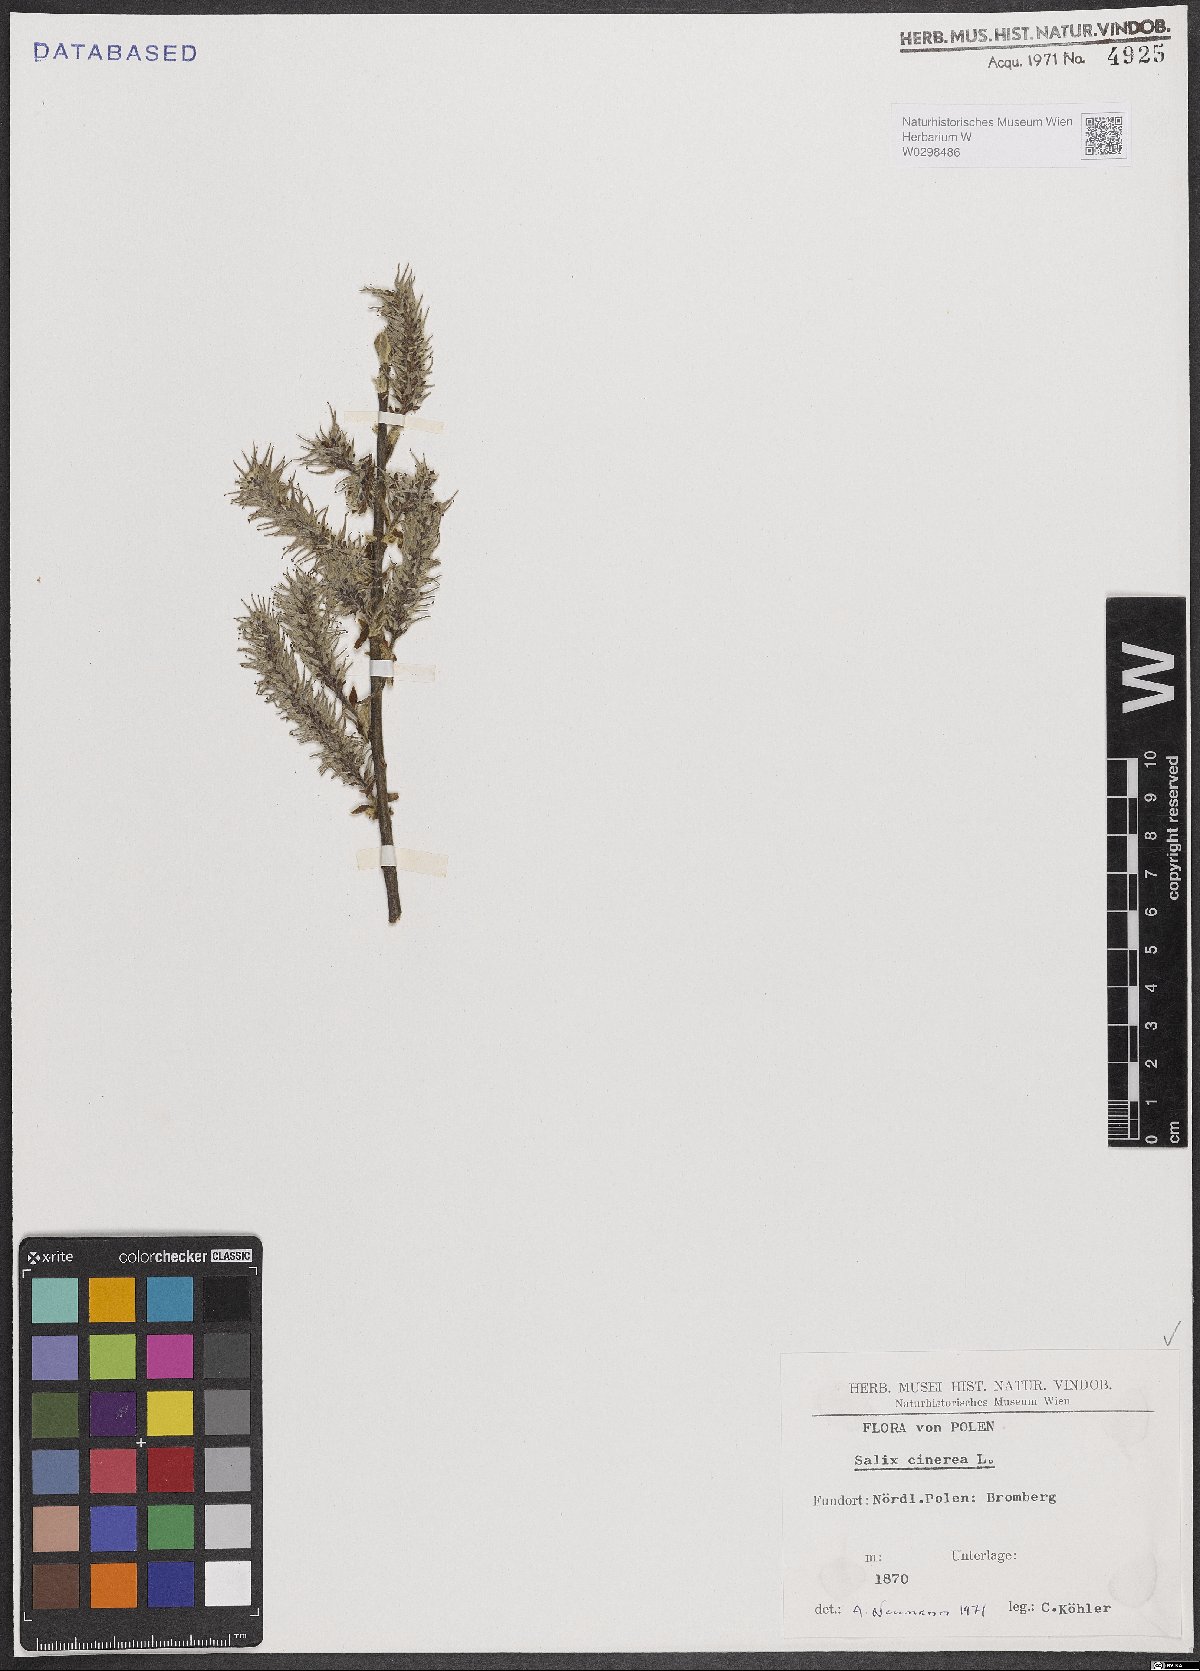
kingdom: Plantae
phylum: Tracheophyta
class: Magnoliopsida
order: Malpighiales
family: Salicaceae
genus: Salix
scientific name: Salix cinerea
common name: Common sallow
